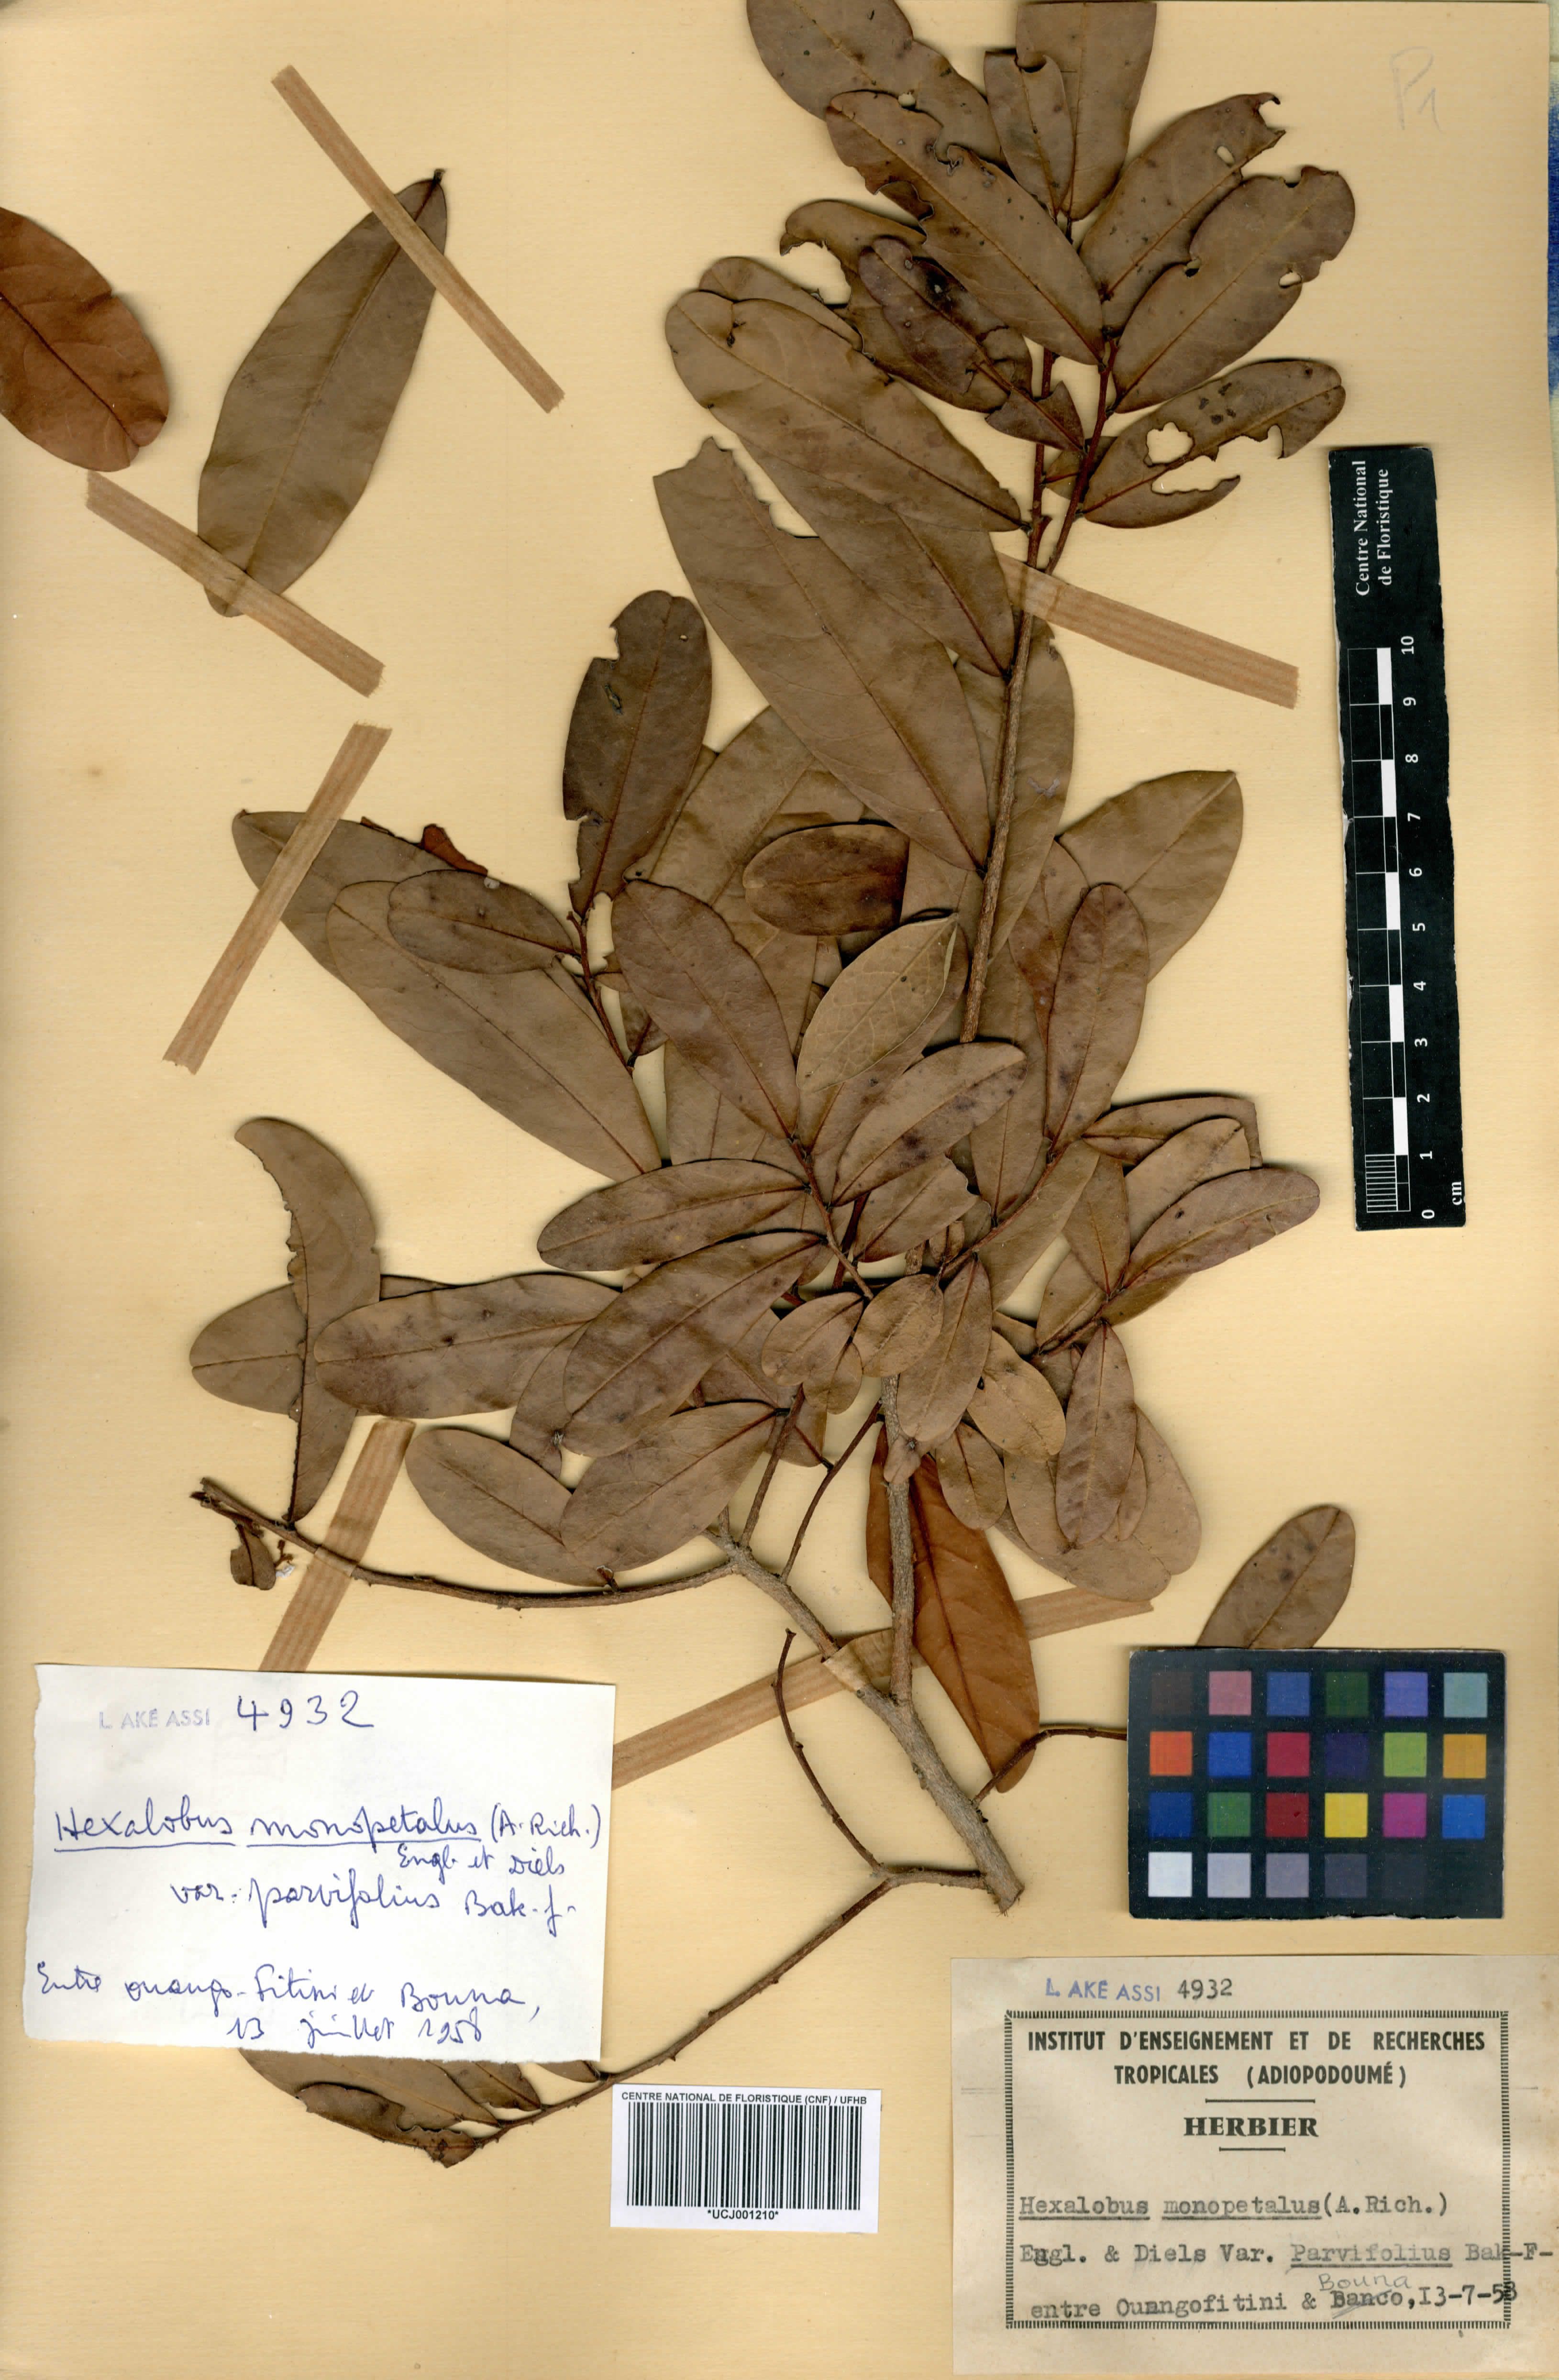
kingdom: Plantae
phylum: Tracheophyta
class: Magnoliopsida
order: Magnoliales
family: Annonaceae
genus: Hexalobus
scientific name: Hexalobus monopetalus
